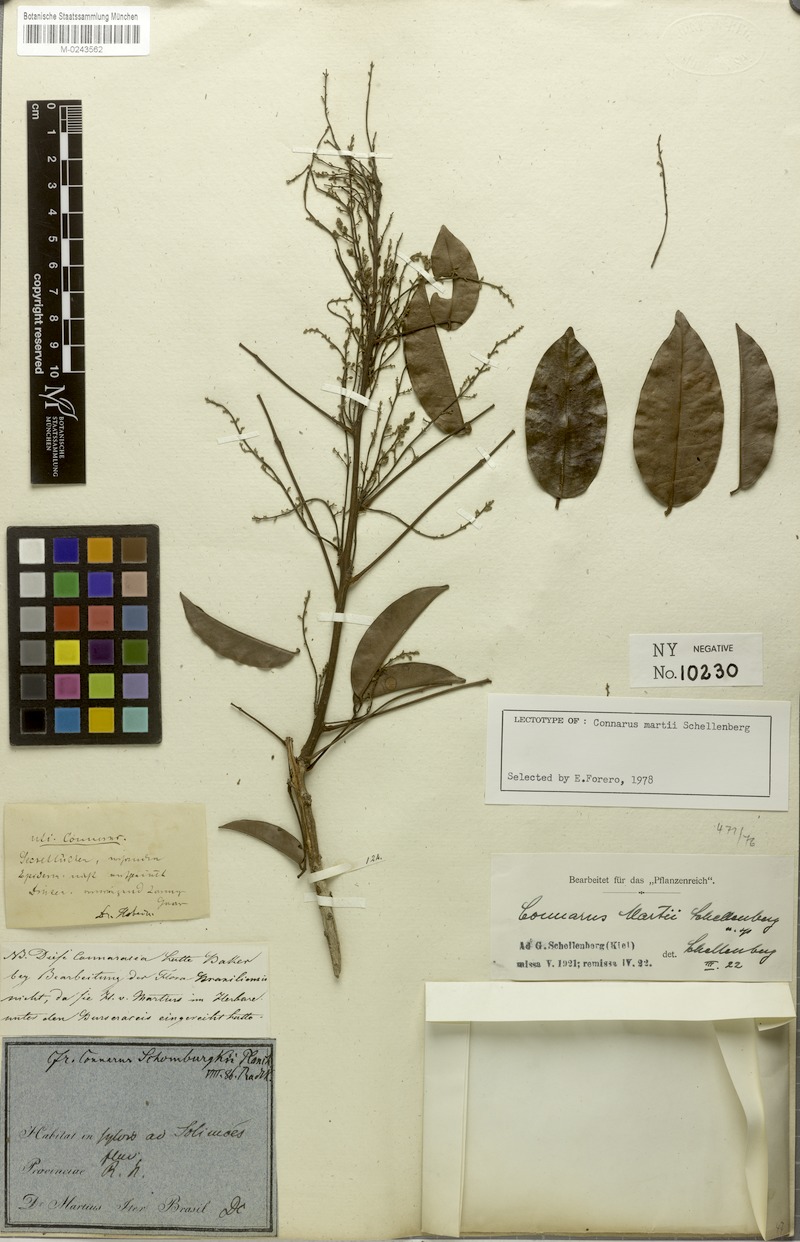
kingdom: Plantae
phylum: Tracheophyta
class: Magnoliopsida
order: Oxalidales
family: Connaraceae
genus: Connarus
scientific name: Connarus martii
